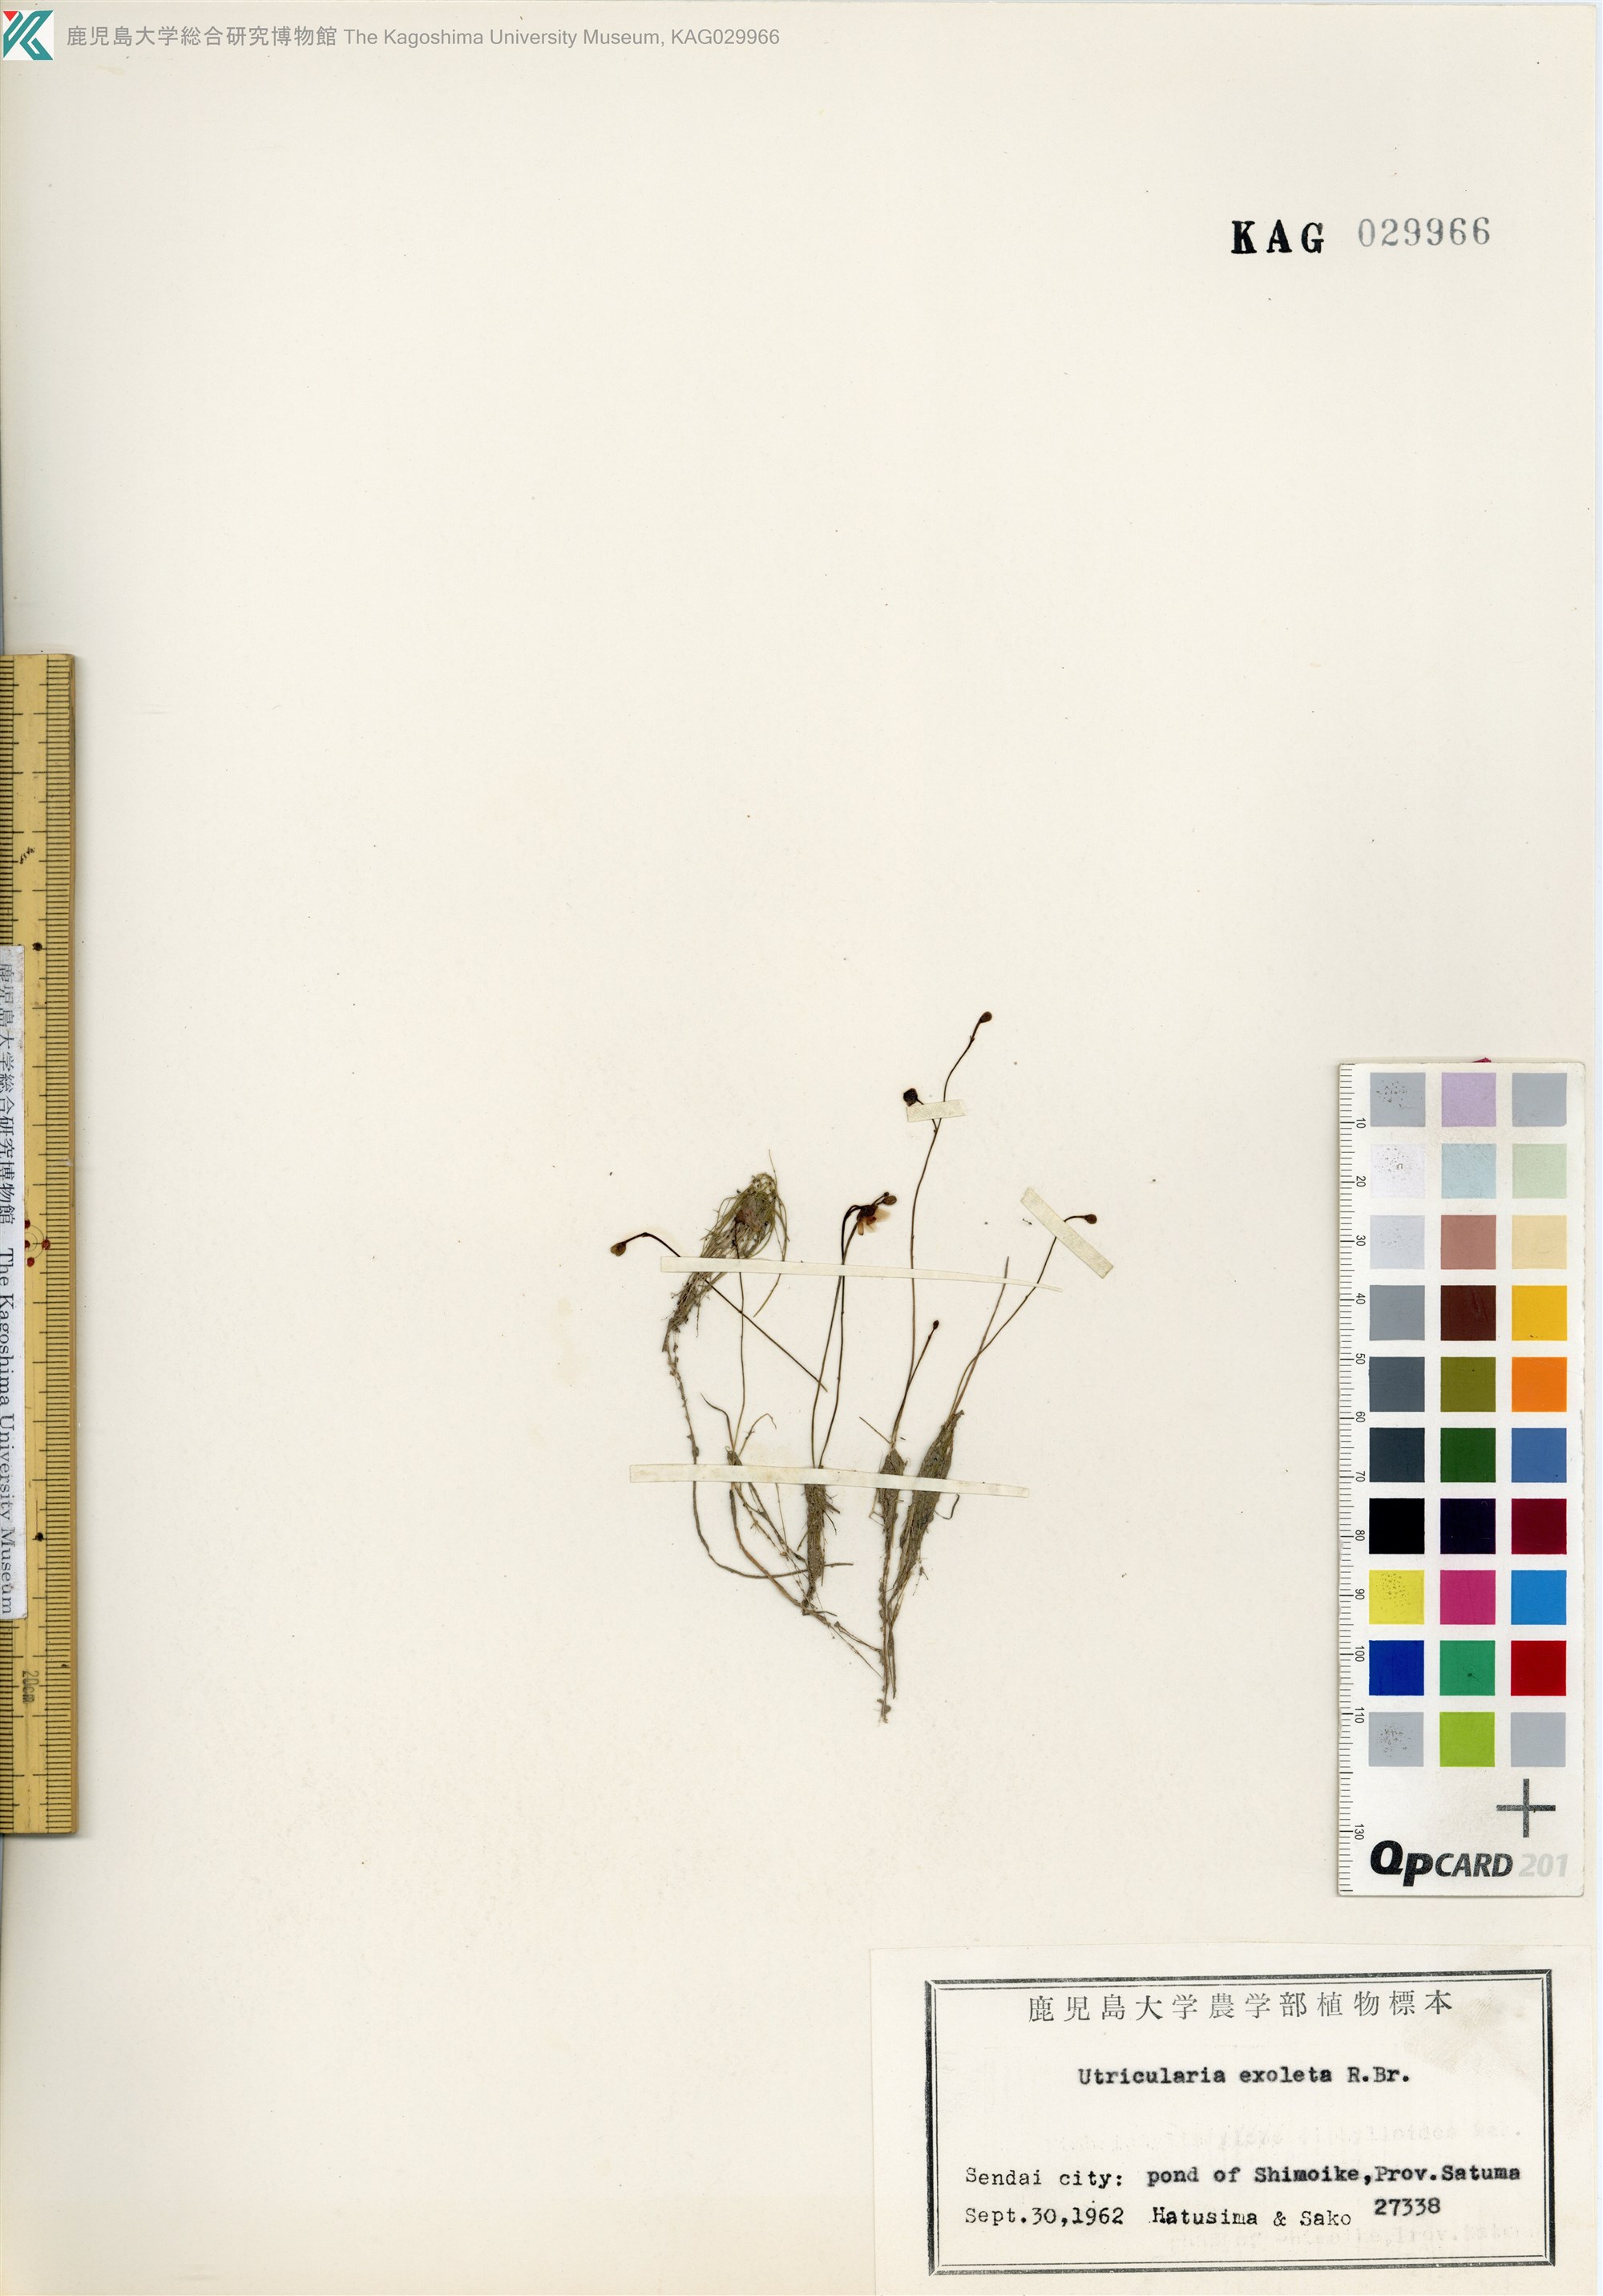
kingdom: Plantae
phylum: Tracheophyta
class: Magnoliopsida
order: Lamiales
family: Lentibulariaceae
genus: Utricularia
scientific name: Utricularia gibba
